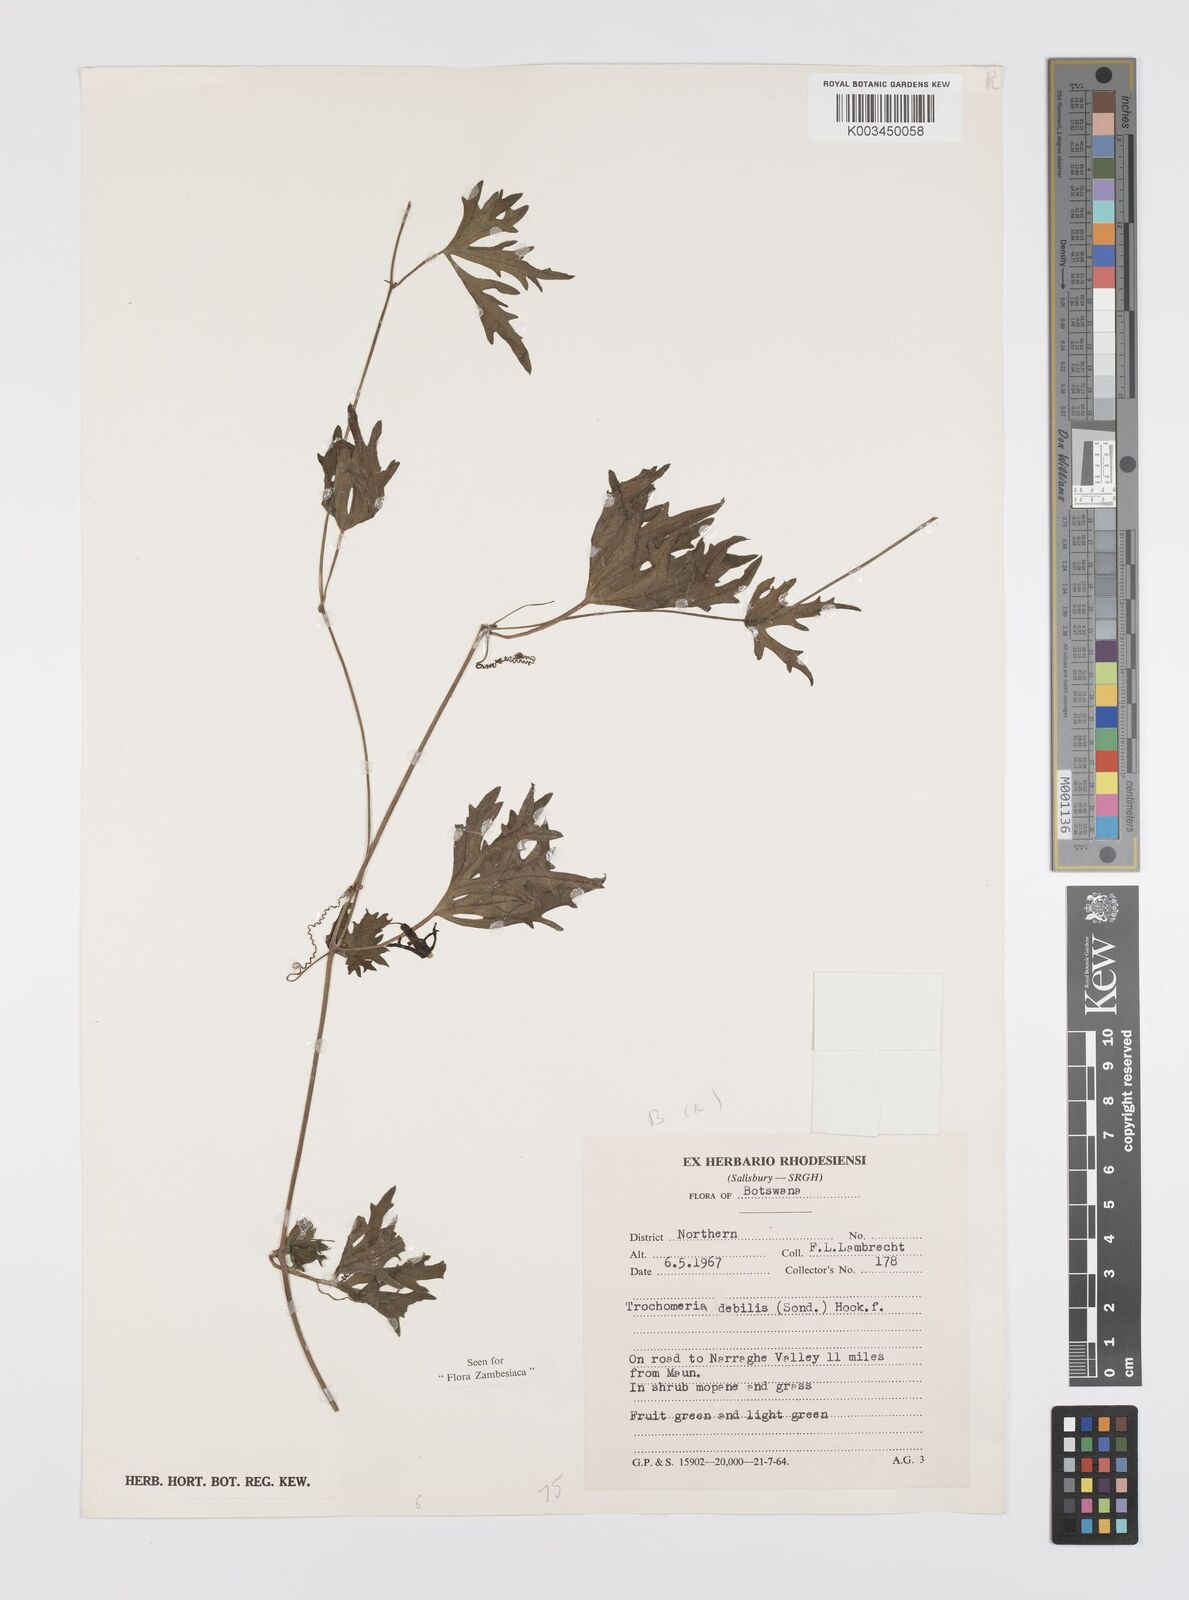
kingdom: Plantae
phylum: Tracheophyta
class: Magnoliopsida
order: Cucurbitales
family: Cucurbitaceae
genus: Trochomeria
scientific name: Trochomeria debilis
